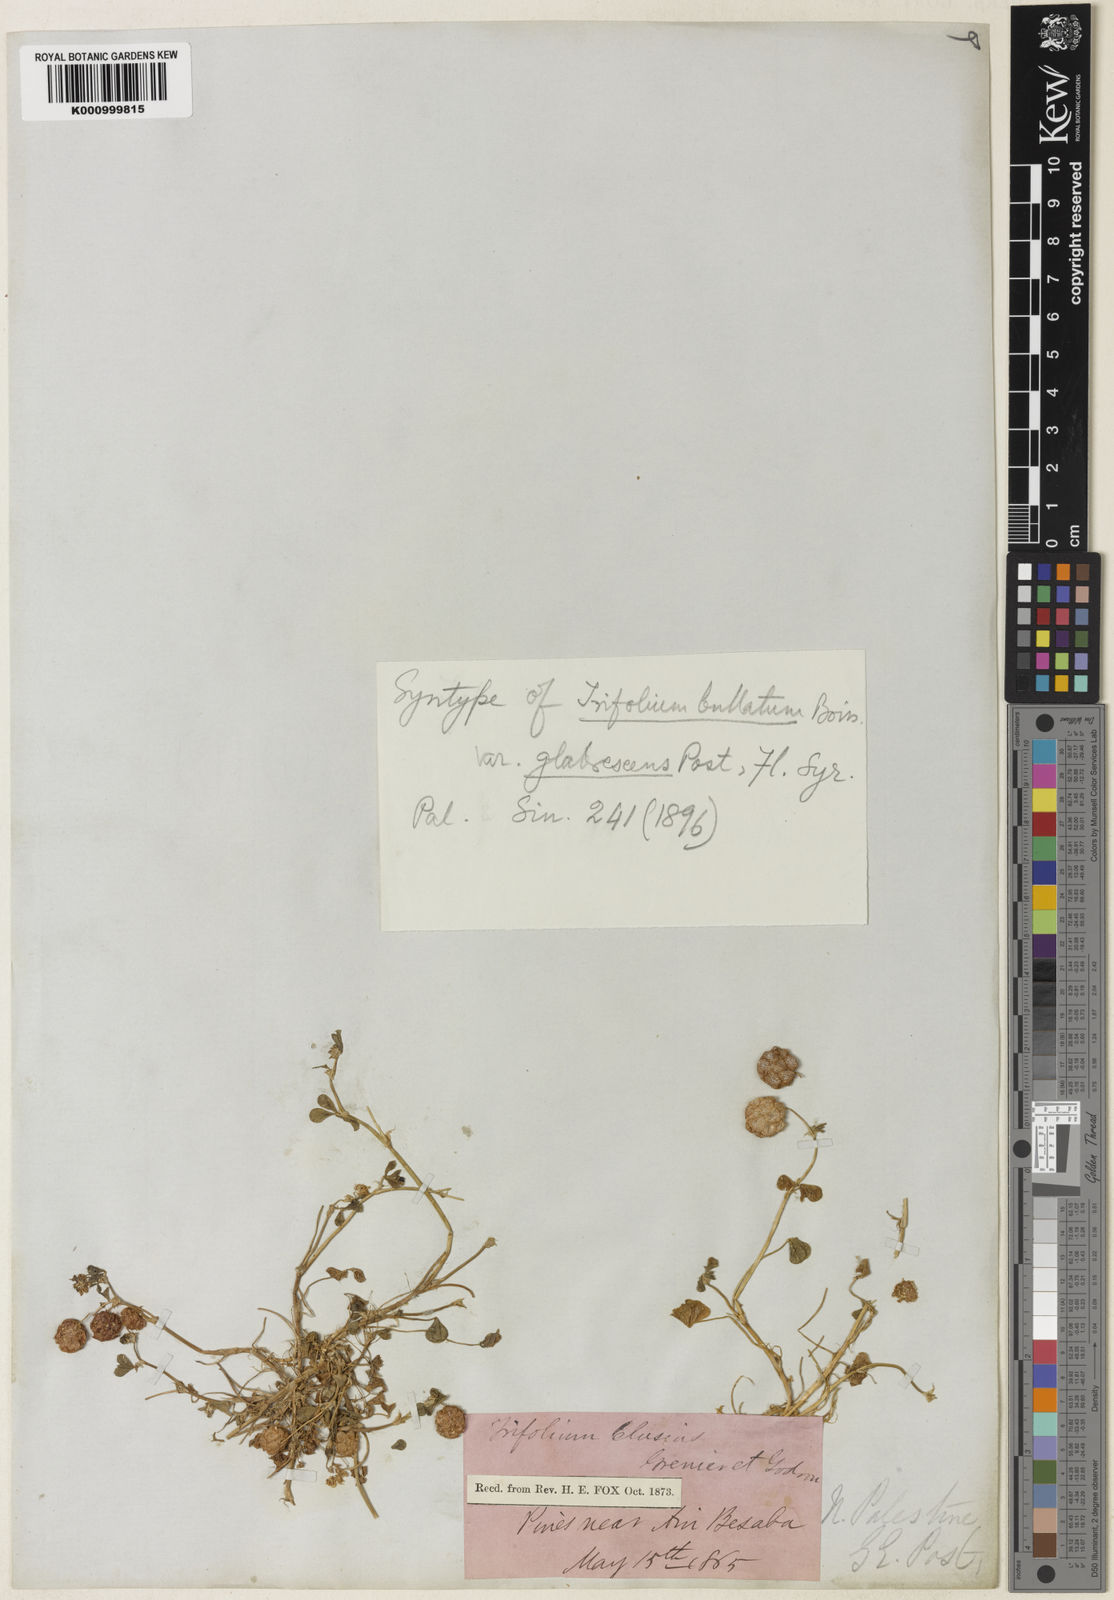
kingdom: Plantae
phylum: Tracheophyta
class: Magnoliopsida
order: Fabales
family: Fabaceae
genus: Trifolium
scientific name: Trifolium bullatum
